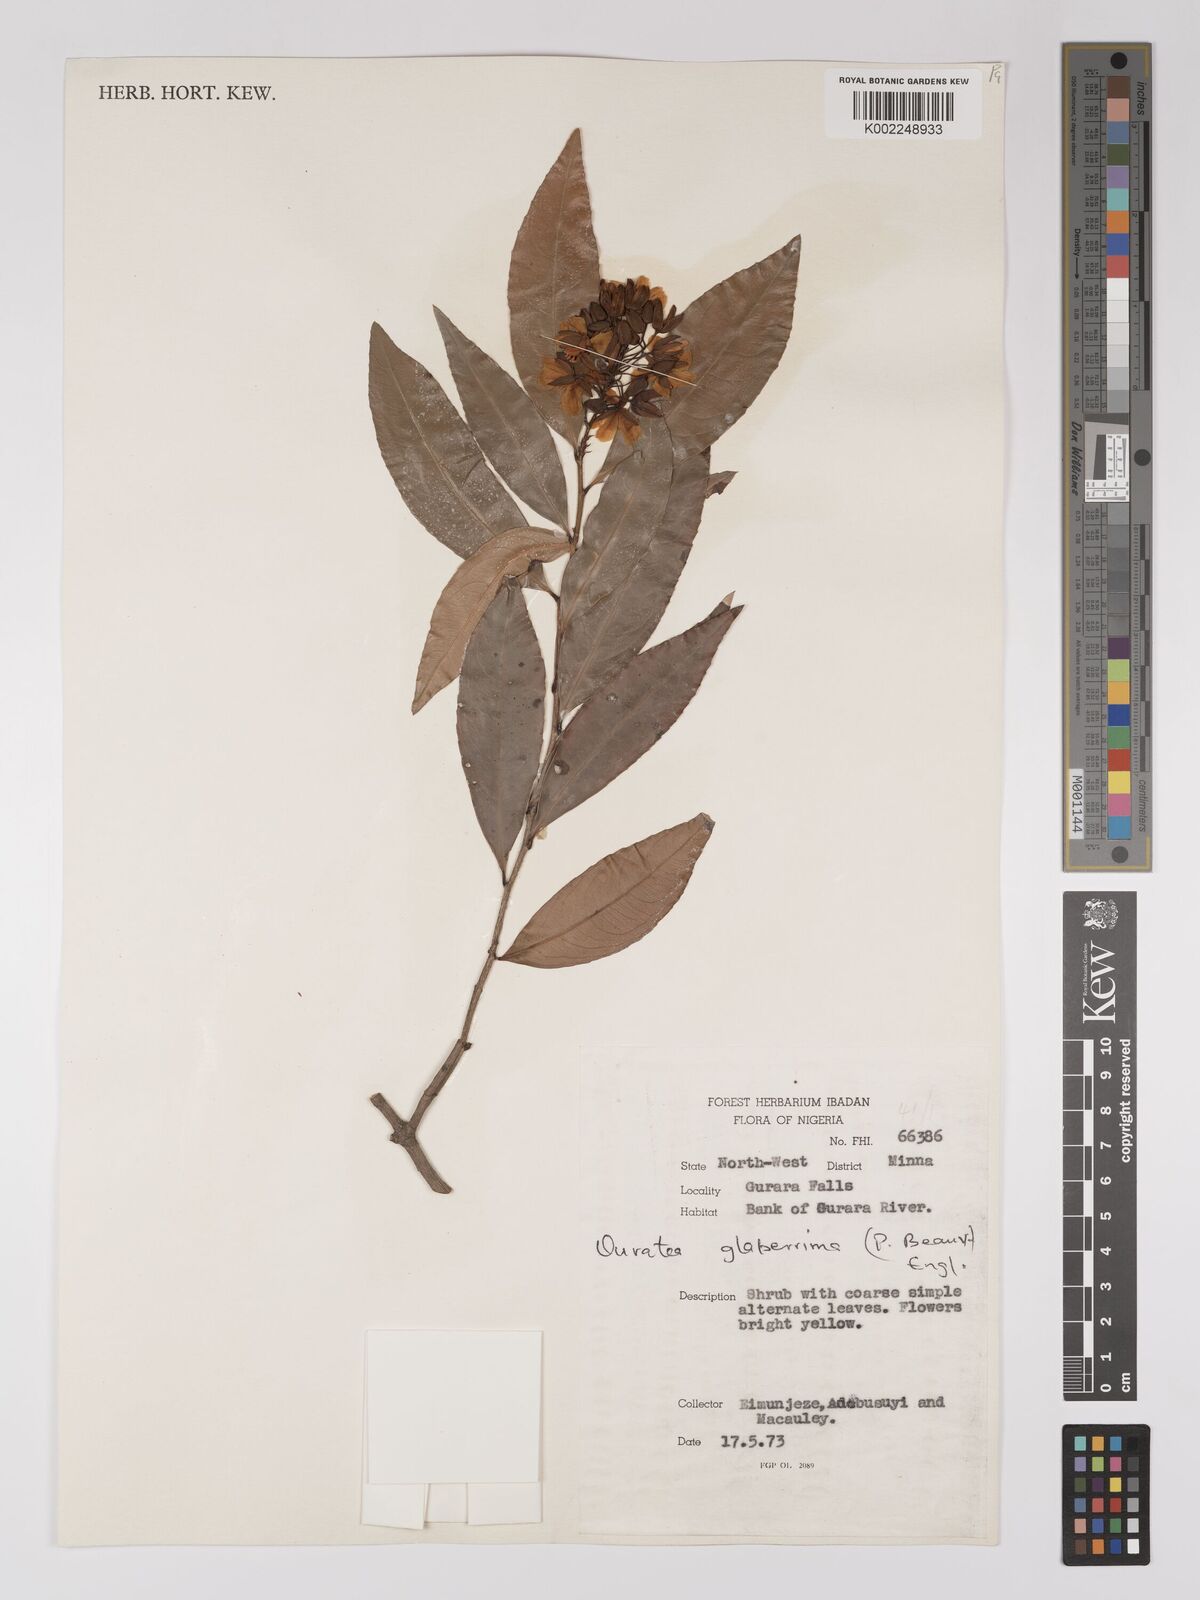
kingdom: Plantae
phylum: Tracheophyta
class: Magnoliopsida
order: Malpighiales
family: Ochnaceae
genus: Campylospermum
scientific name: Campylospermum glaberrimum
